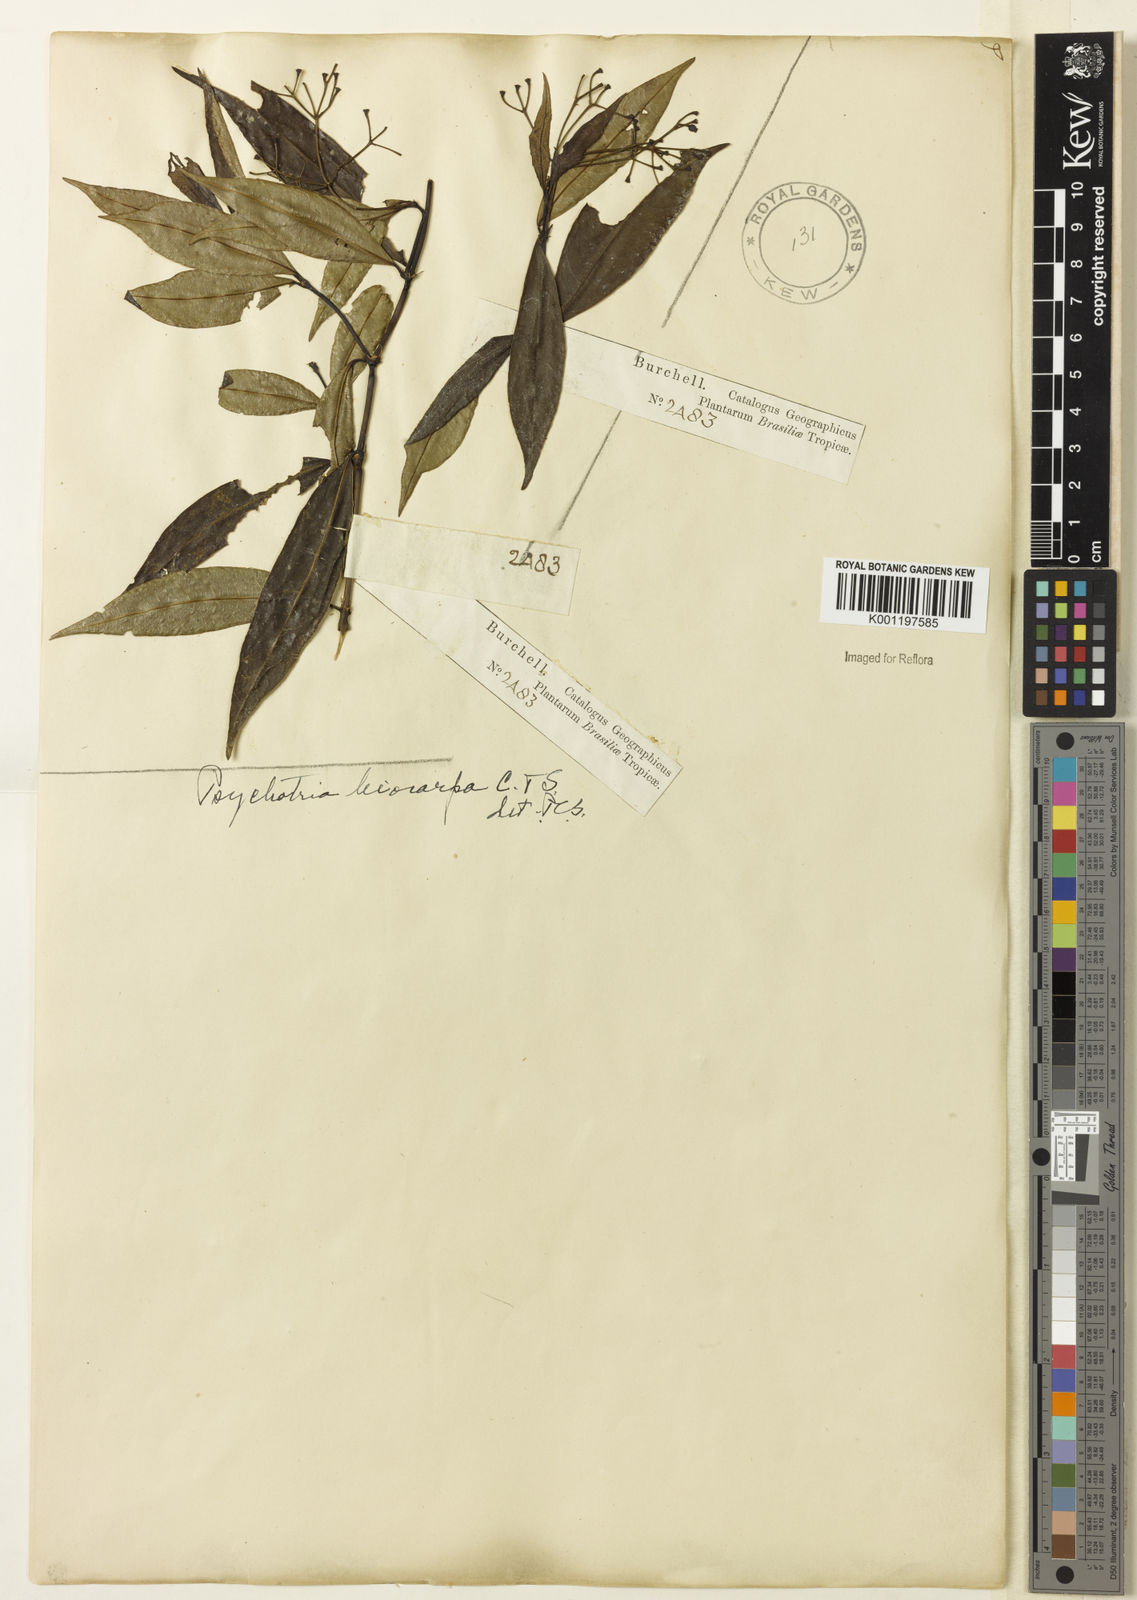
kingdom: Plantae
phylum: Tracheophyta
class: Magnoliopsida
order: Gentianales
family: Rubiaceae
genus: Psychotria
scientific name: Psychotria leiocarpa
